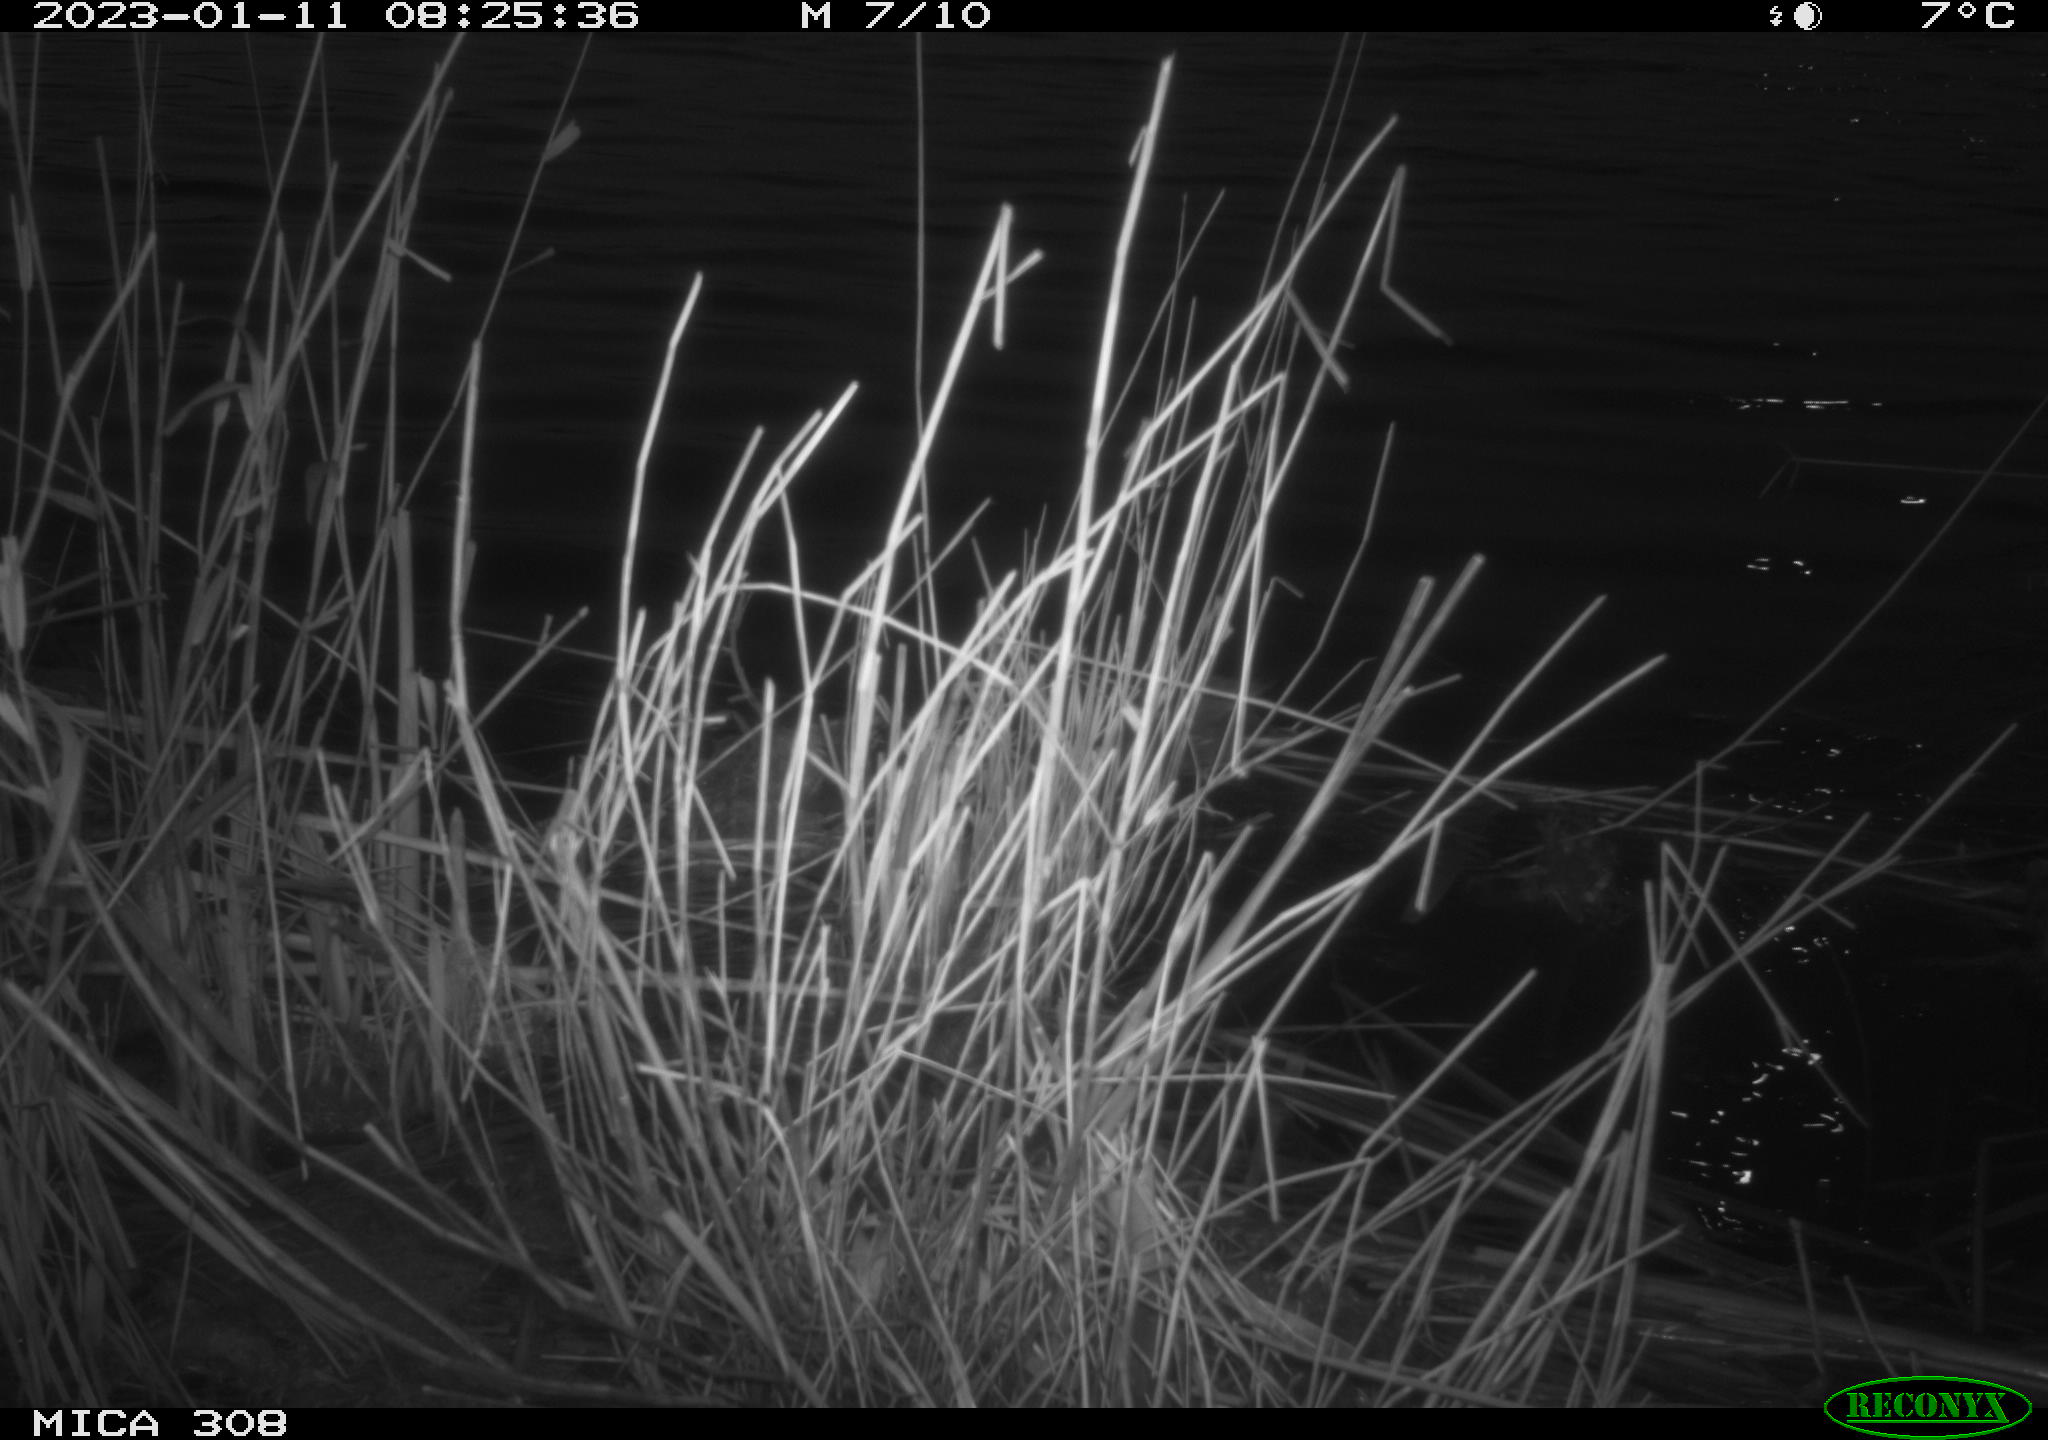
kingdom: Animalia
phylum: Chordata
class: Mammalia
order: Rodentia
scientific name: Rodentia
